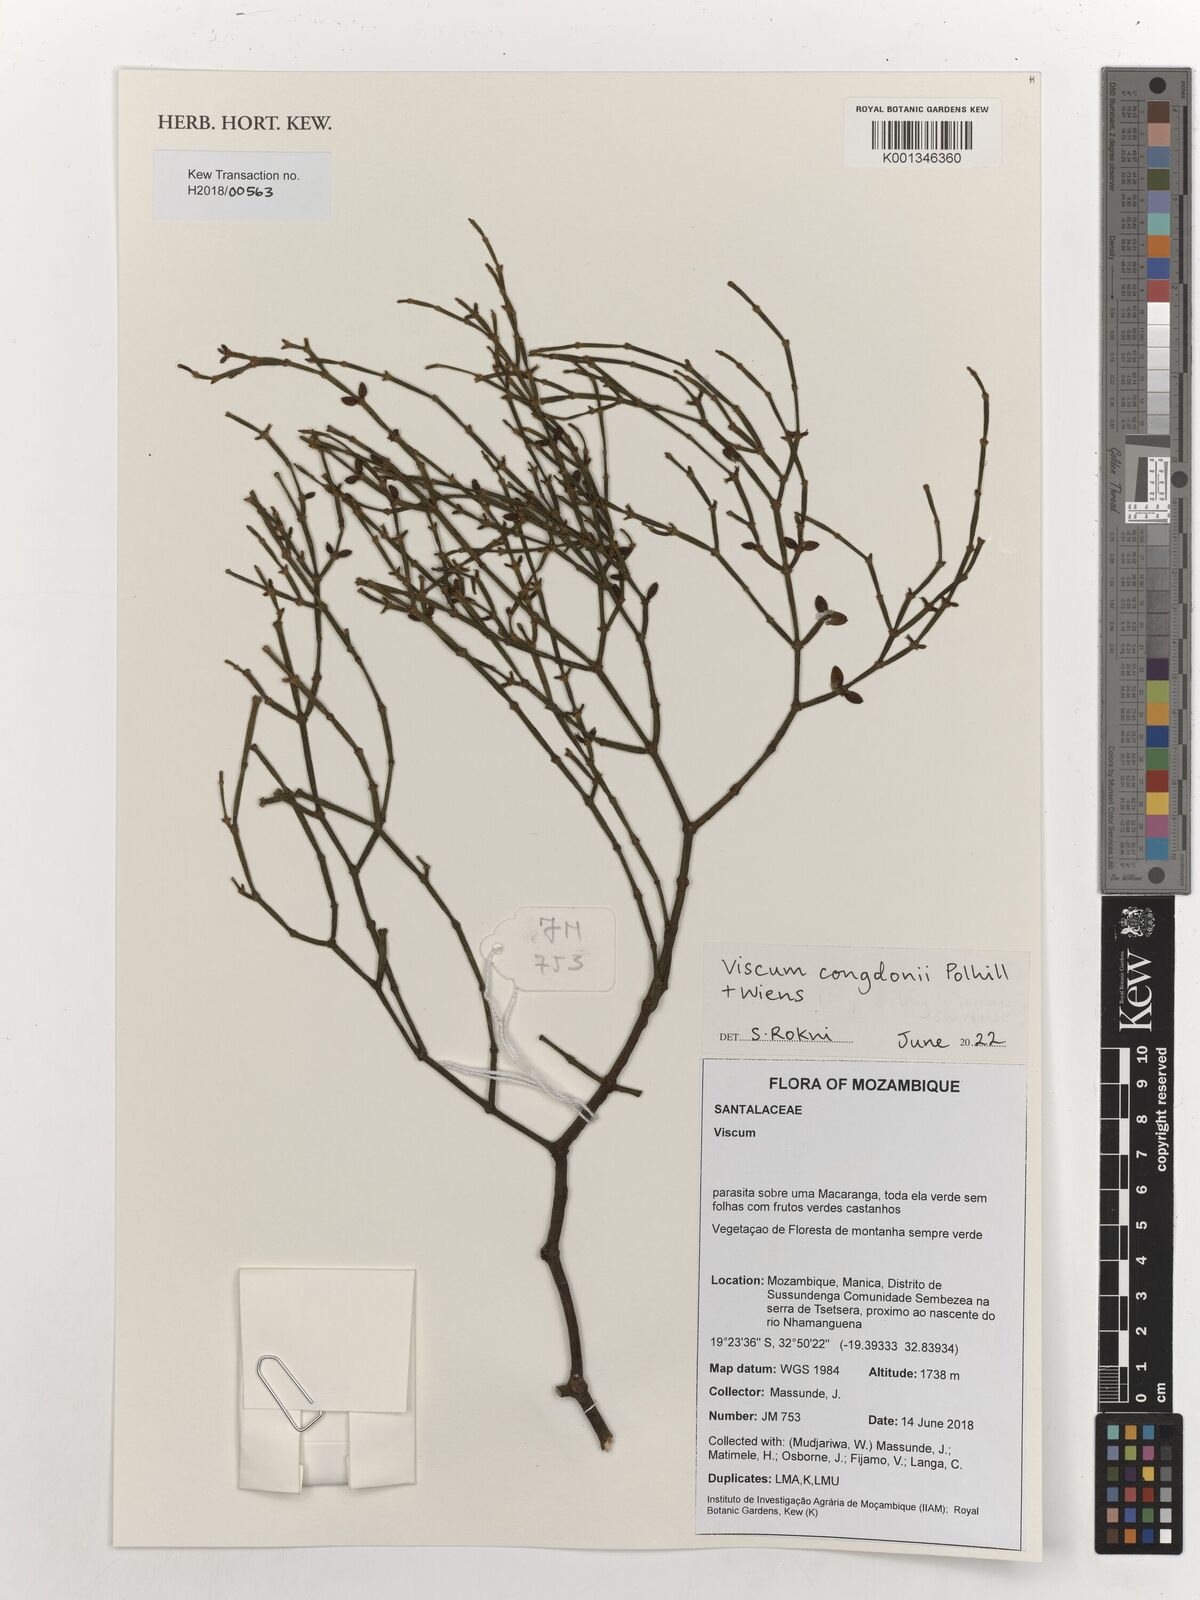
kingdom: Plantae
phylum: Tracheophyta
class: Magnoliopsida
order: Santalales
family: Viscaceae
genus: Viscum
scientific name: Viscum congdonii
